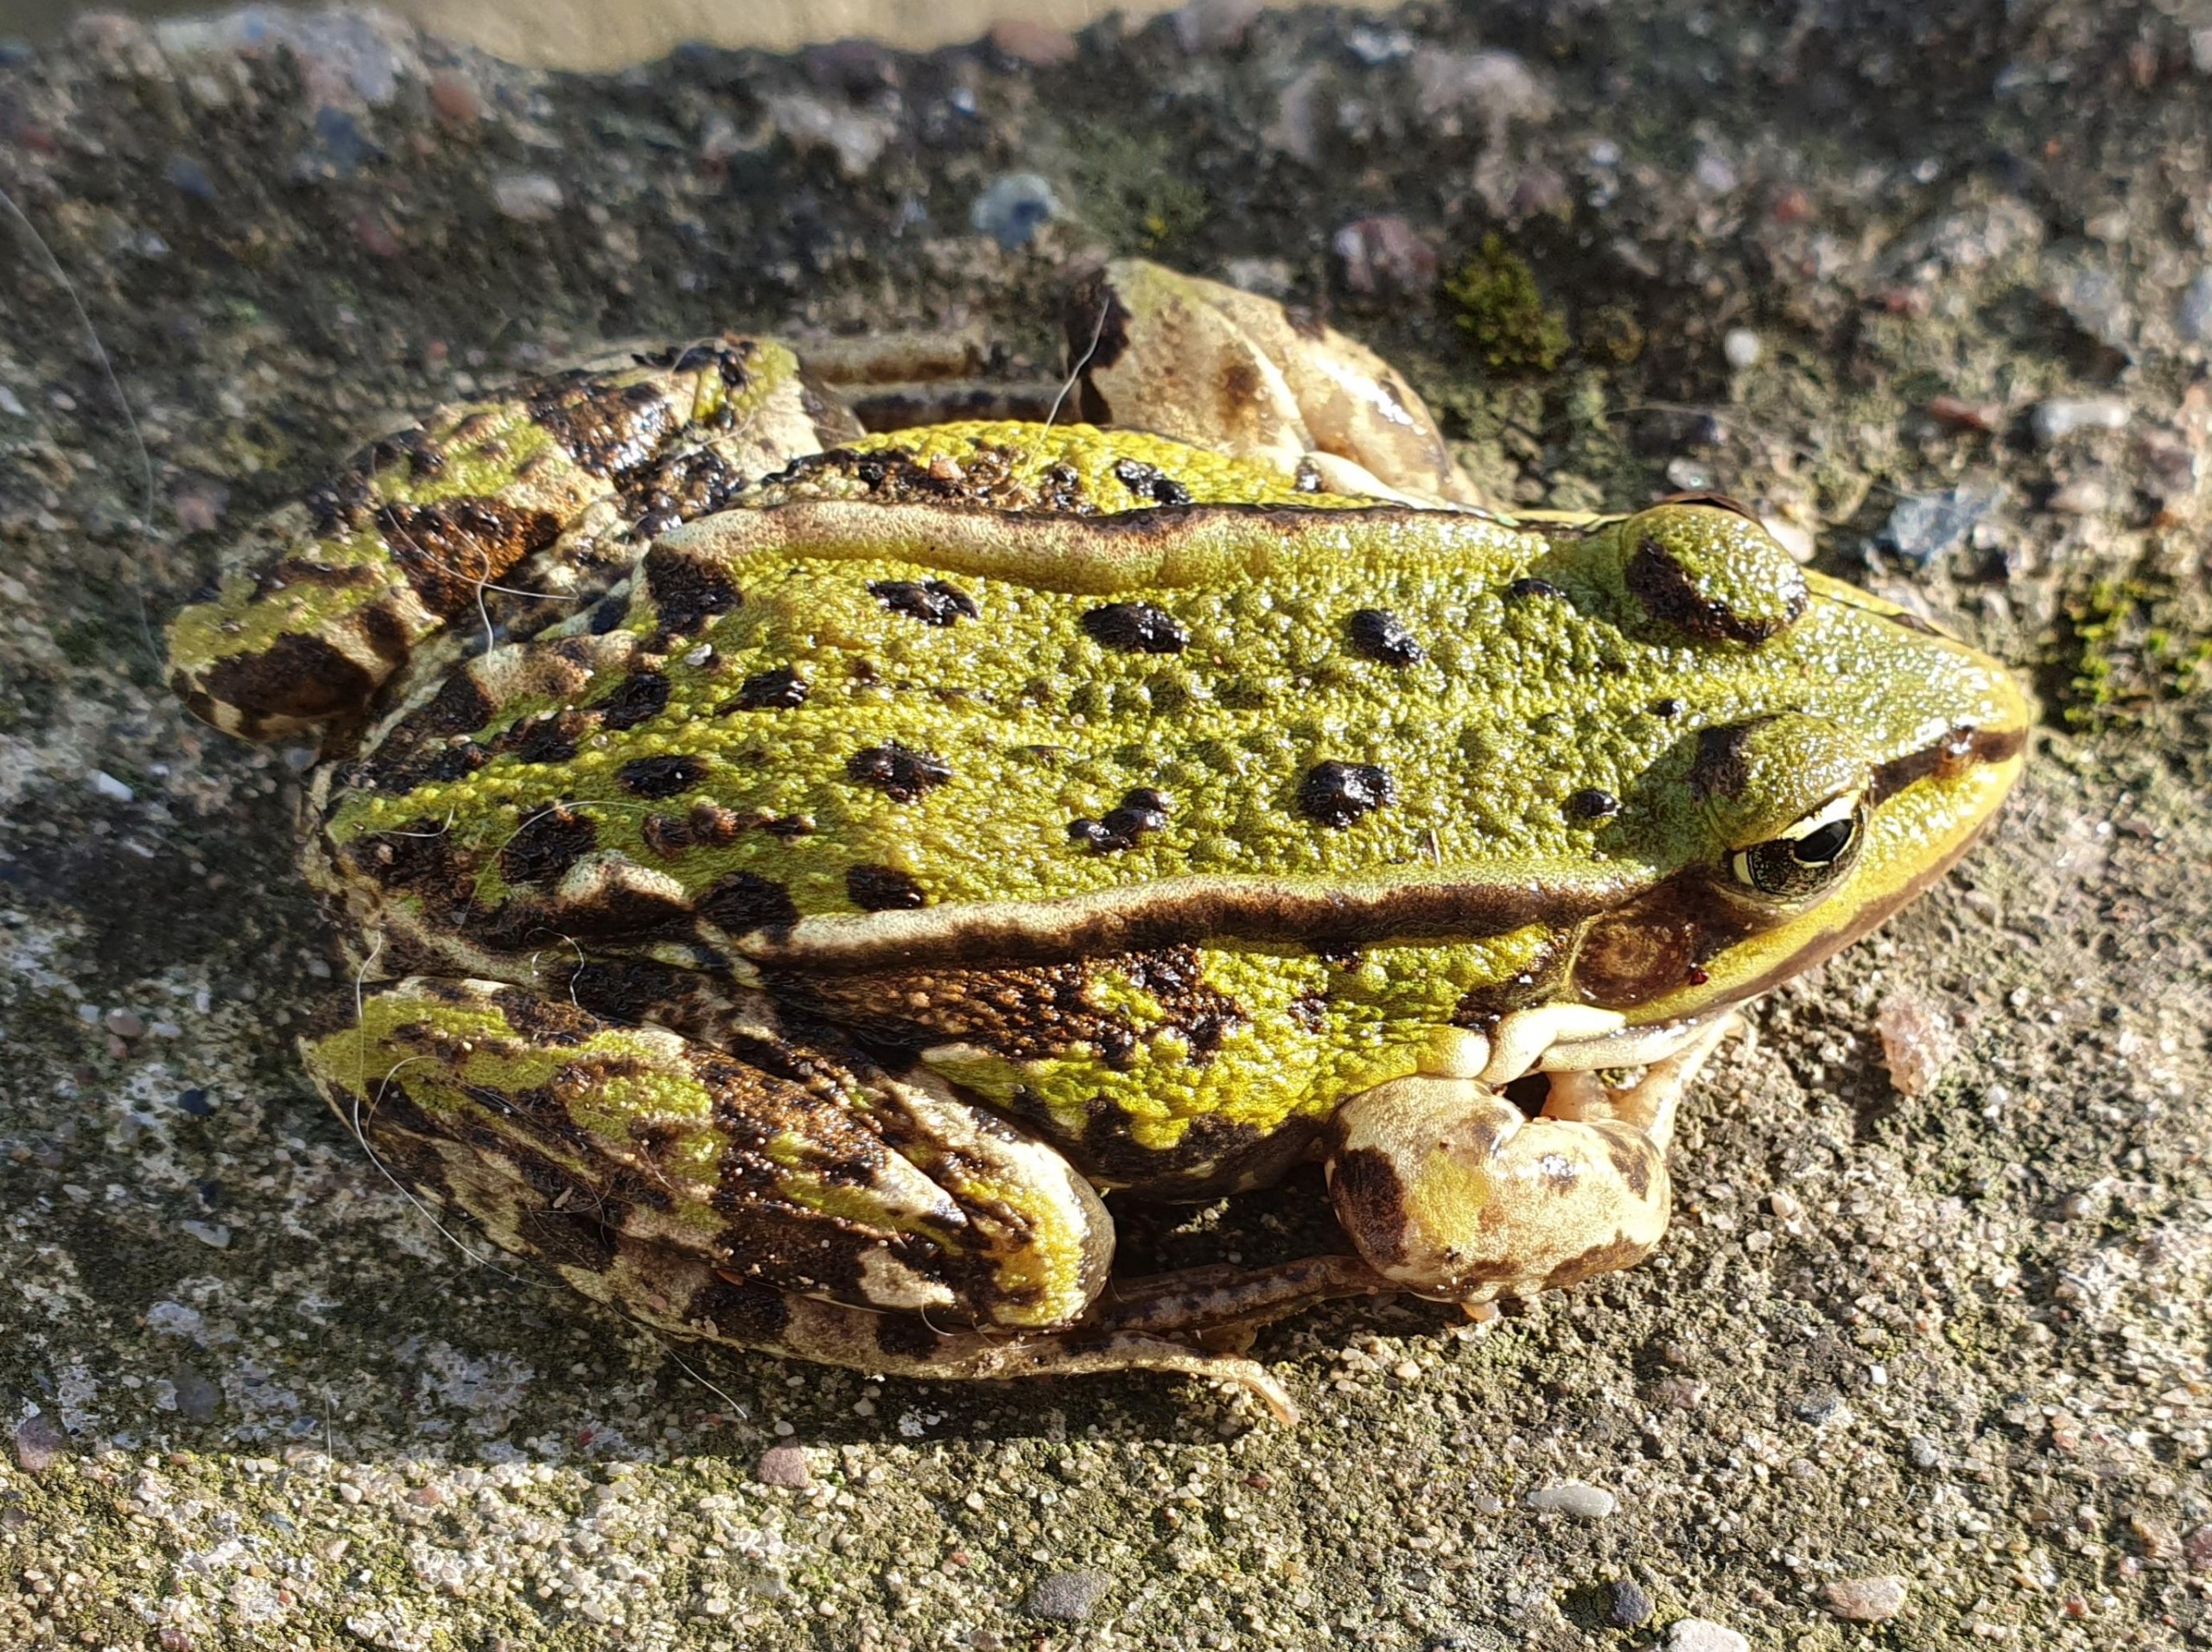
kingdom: Animalia
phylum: Chordata
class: Amphibia
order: Anura
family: Ranidae
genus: Pelophylax
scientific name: Pelophylax lessonae
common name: Grøn frø
